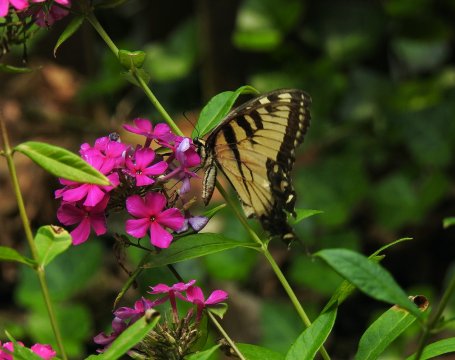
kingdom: Animalia
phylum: Arthropoda
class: Insecta
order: Lepidoptera
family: Papilionidae
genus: Pterourus
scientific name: Pterourus glaucus
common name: Eastern Tiger Swallowtail
